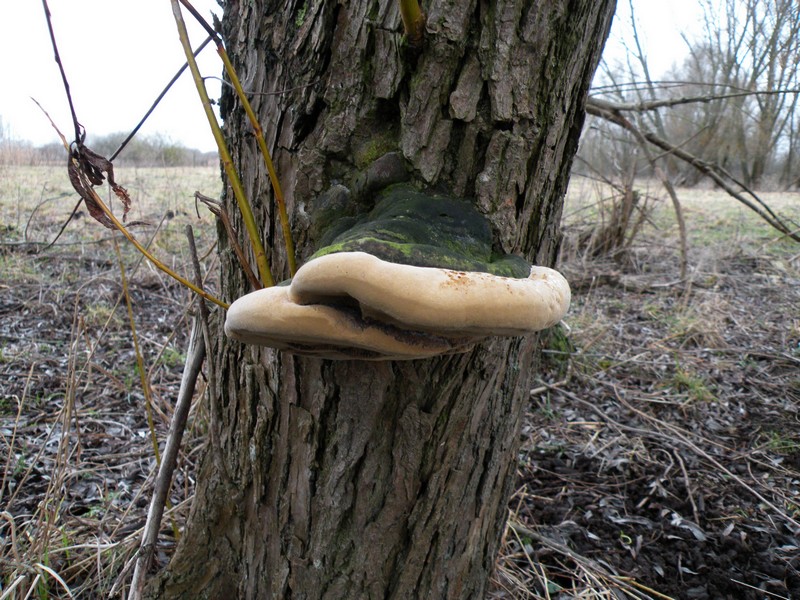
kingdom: Fungi
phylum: Basidiomycota
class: Agaricomycetes
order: Hymenochaetales
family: Hymenochaetaceae
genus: Phellinus
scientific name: Phellinus igniarius
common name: almindelig ildporesvamp
